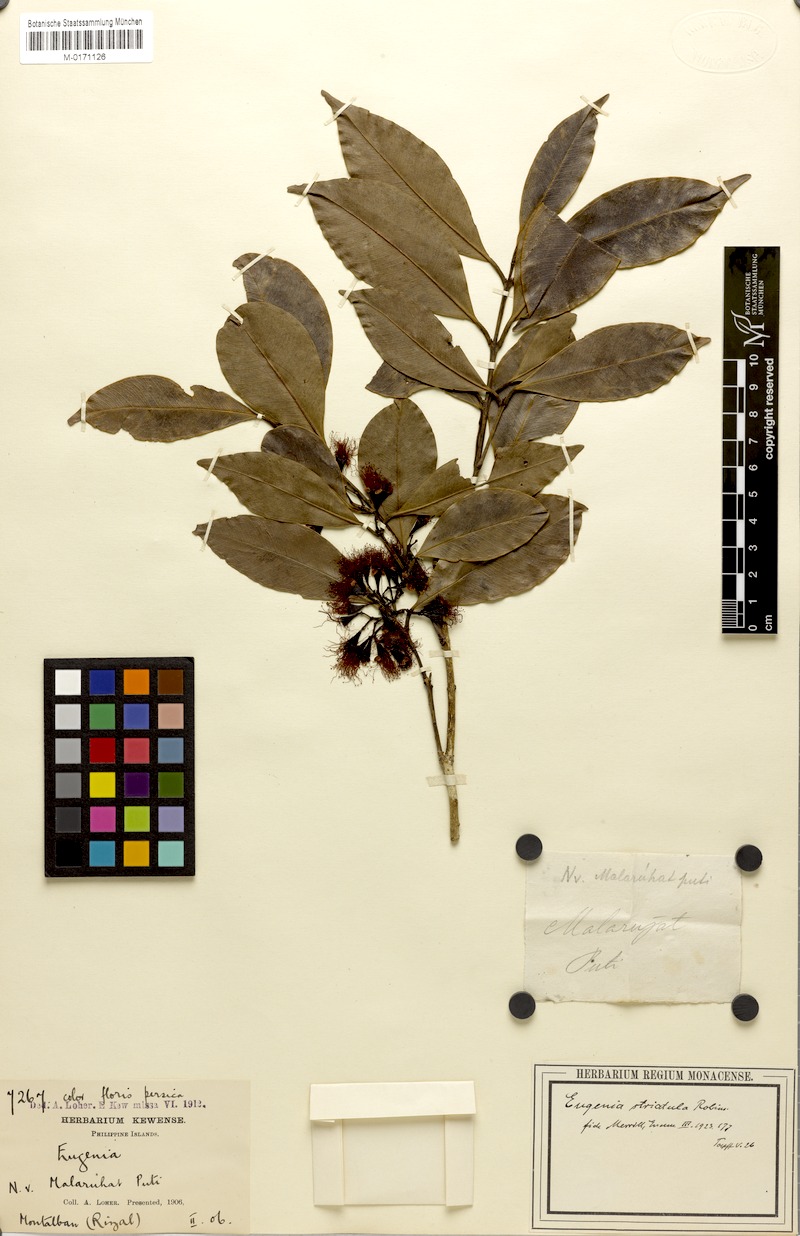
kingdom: Plantae
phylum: Tracheophyta
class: Magnoliopsida
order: Myrtales
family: Myrtaceae
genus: Syzygium
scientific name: Syzygium striatulum
